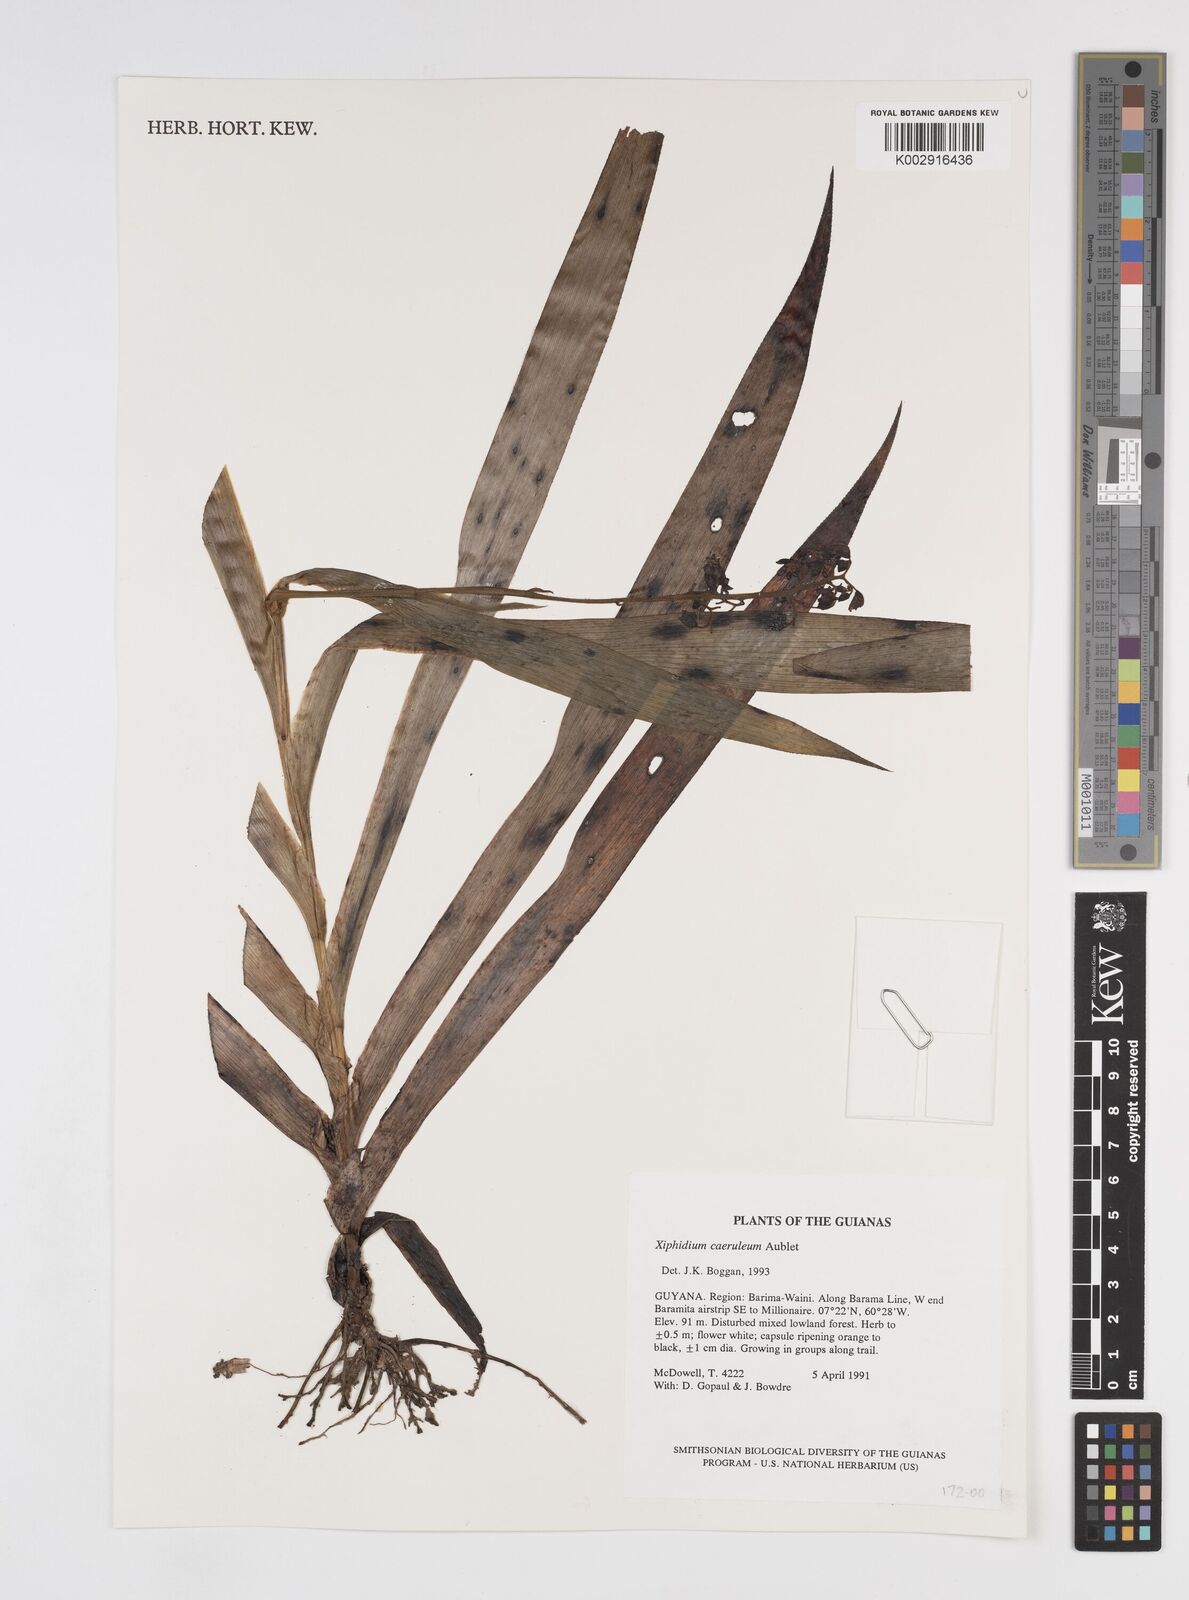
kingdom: Plantae
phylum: Tracheophyta
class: Liliopsida
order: Commelinales
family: Haemodoraceae
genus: Xiphidium
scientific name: Xiphidium caeruleum
